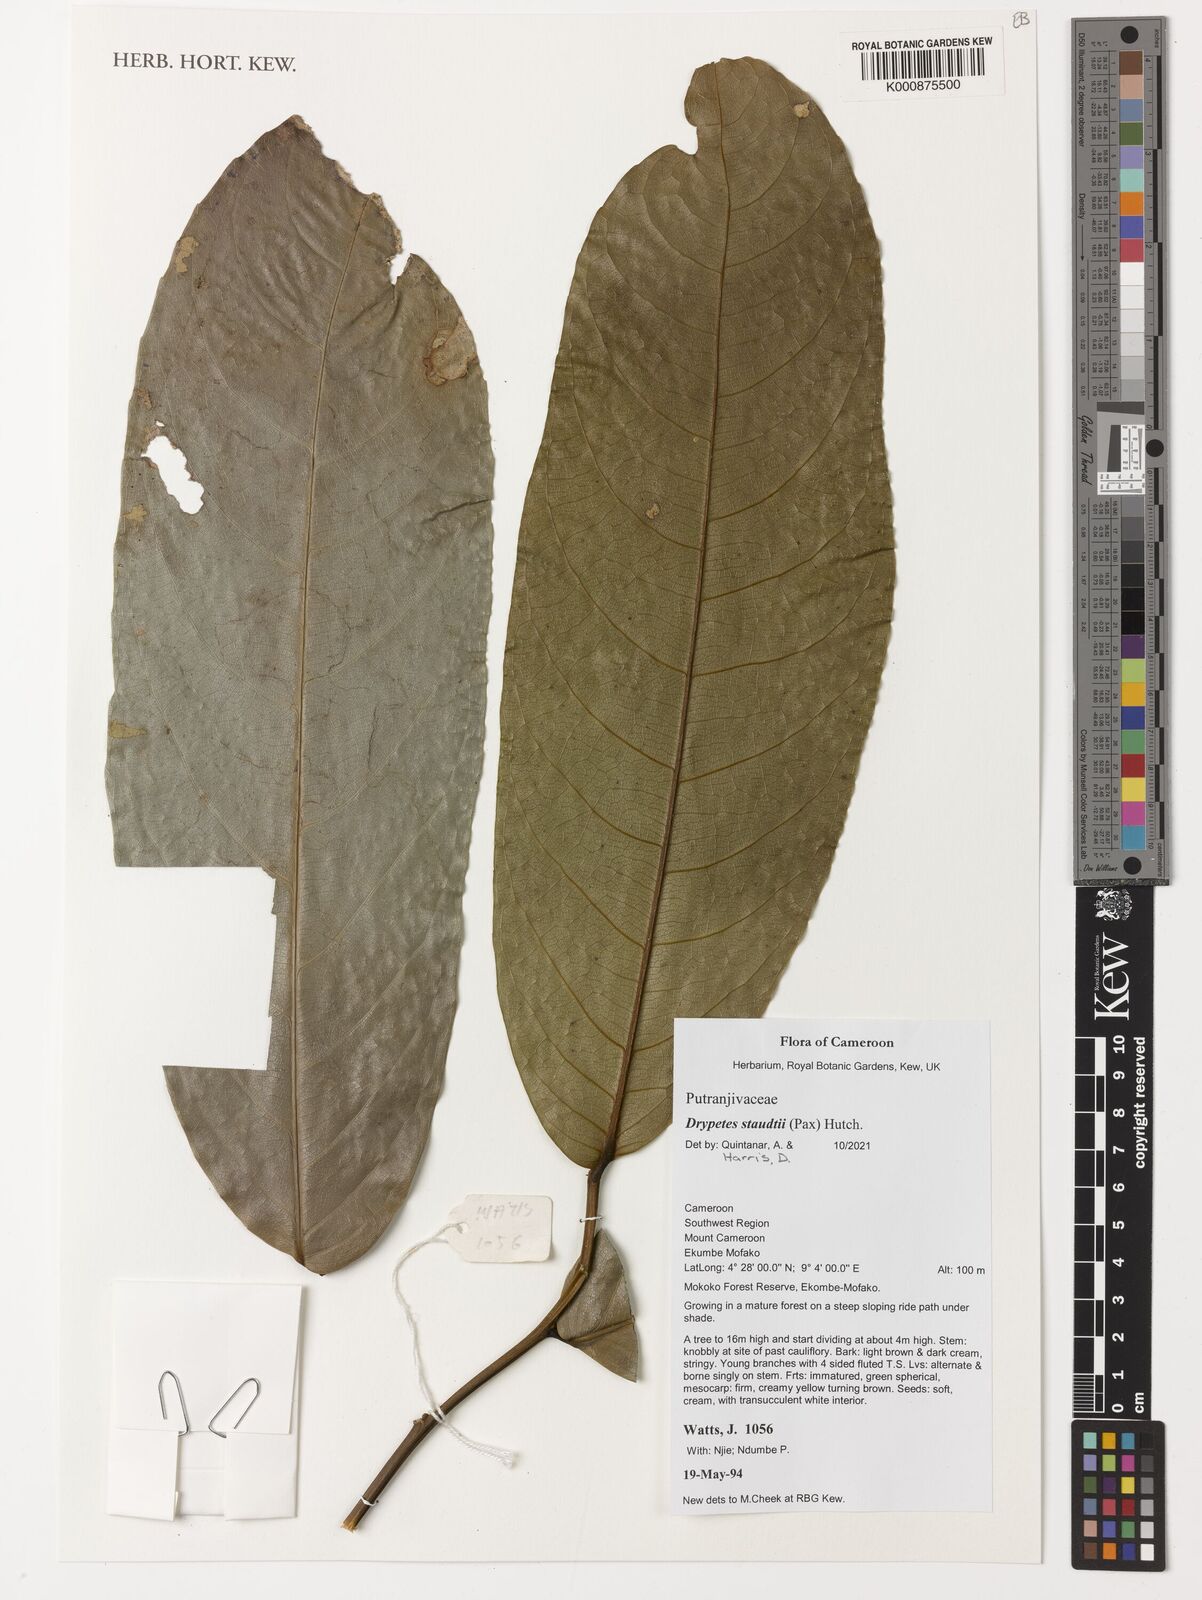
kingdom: Plantae
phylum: Tracheophyta
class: Magnoliopsida
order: Malpighiales
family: Putranjivaceae
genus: Drypetes
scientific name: Drypetes staudtii
